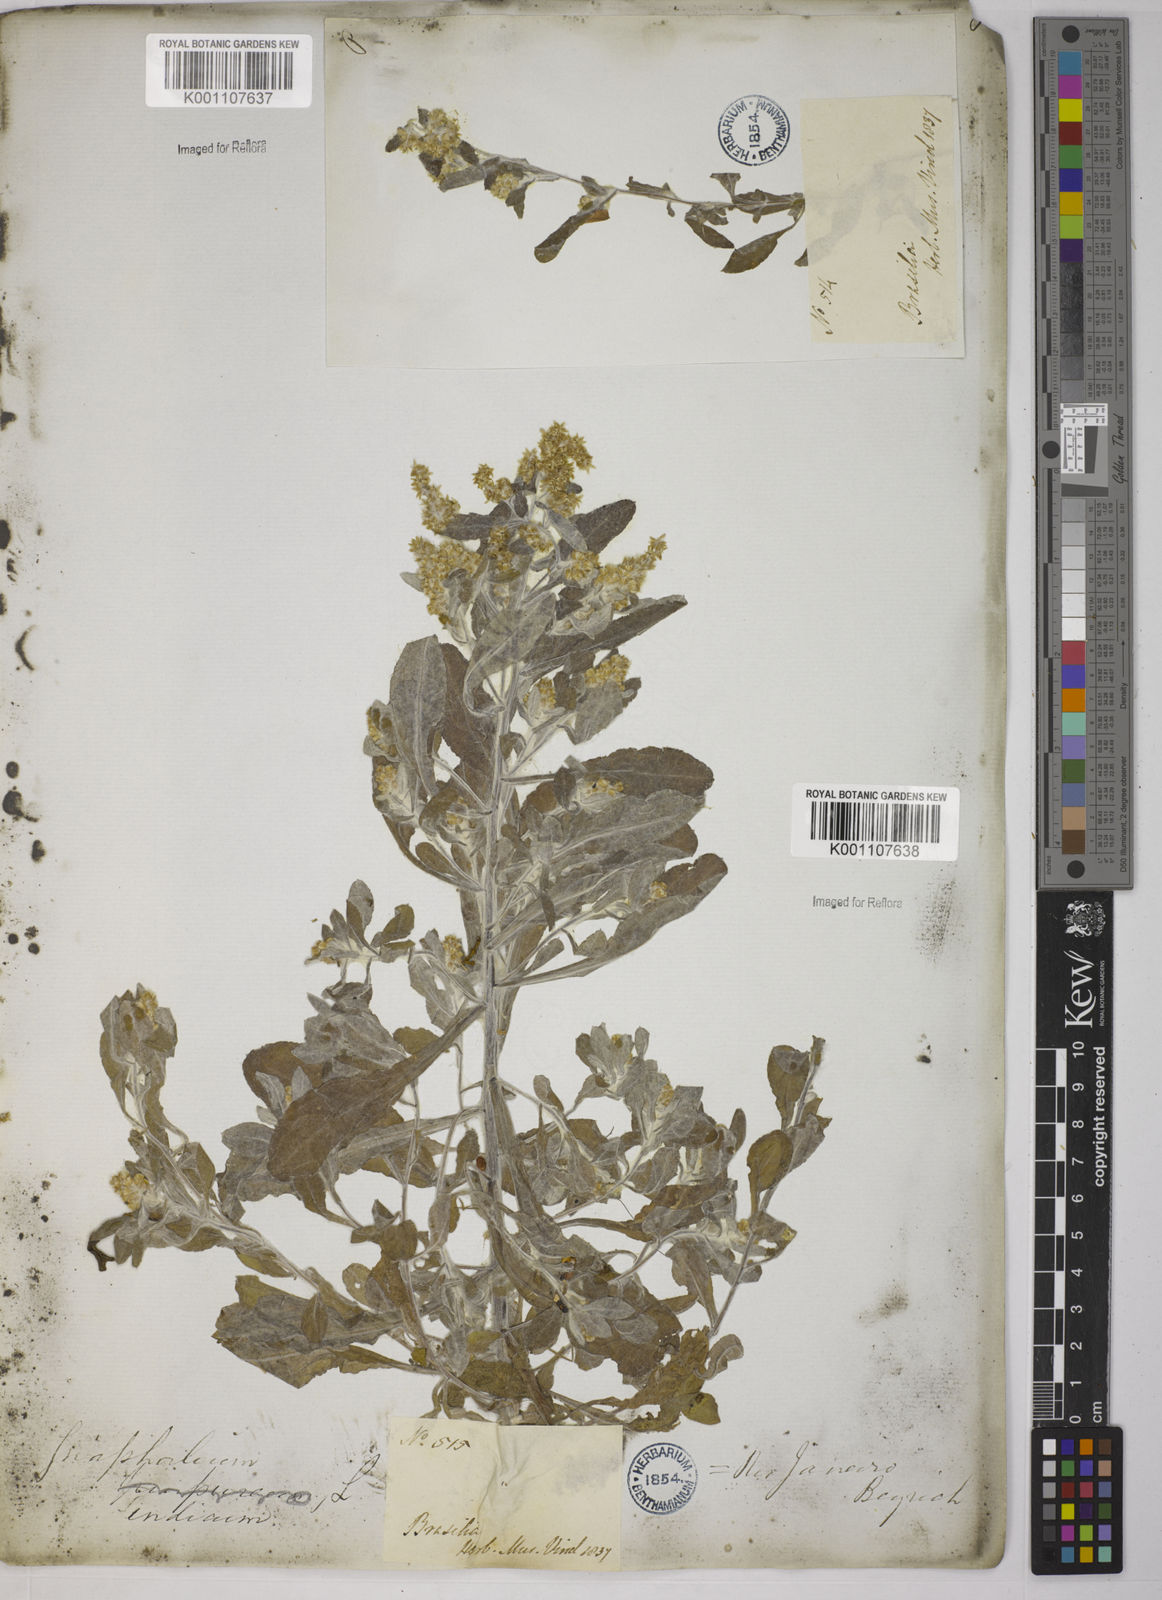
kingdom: Plantae
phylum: Tracheophyta
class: Magnoliopsida
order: Asterales
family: Asteraceae
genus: Gamochaeta
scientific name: Gamochaeta americana
